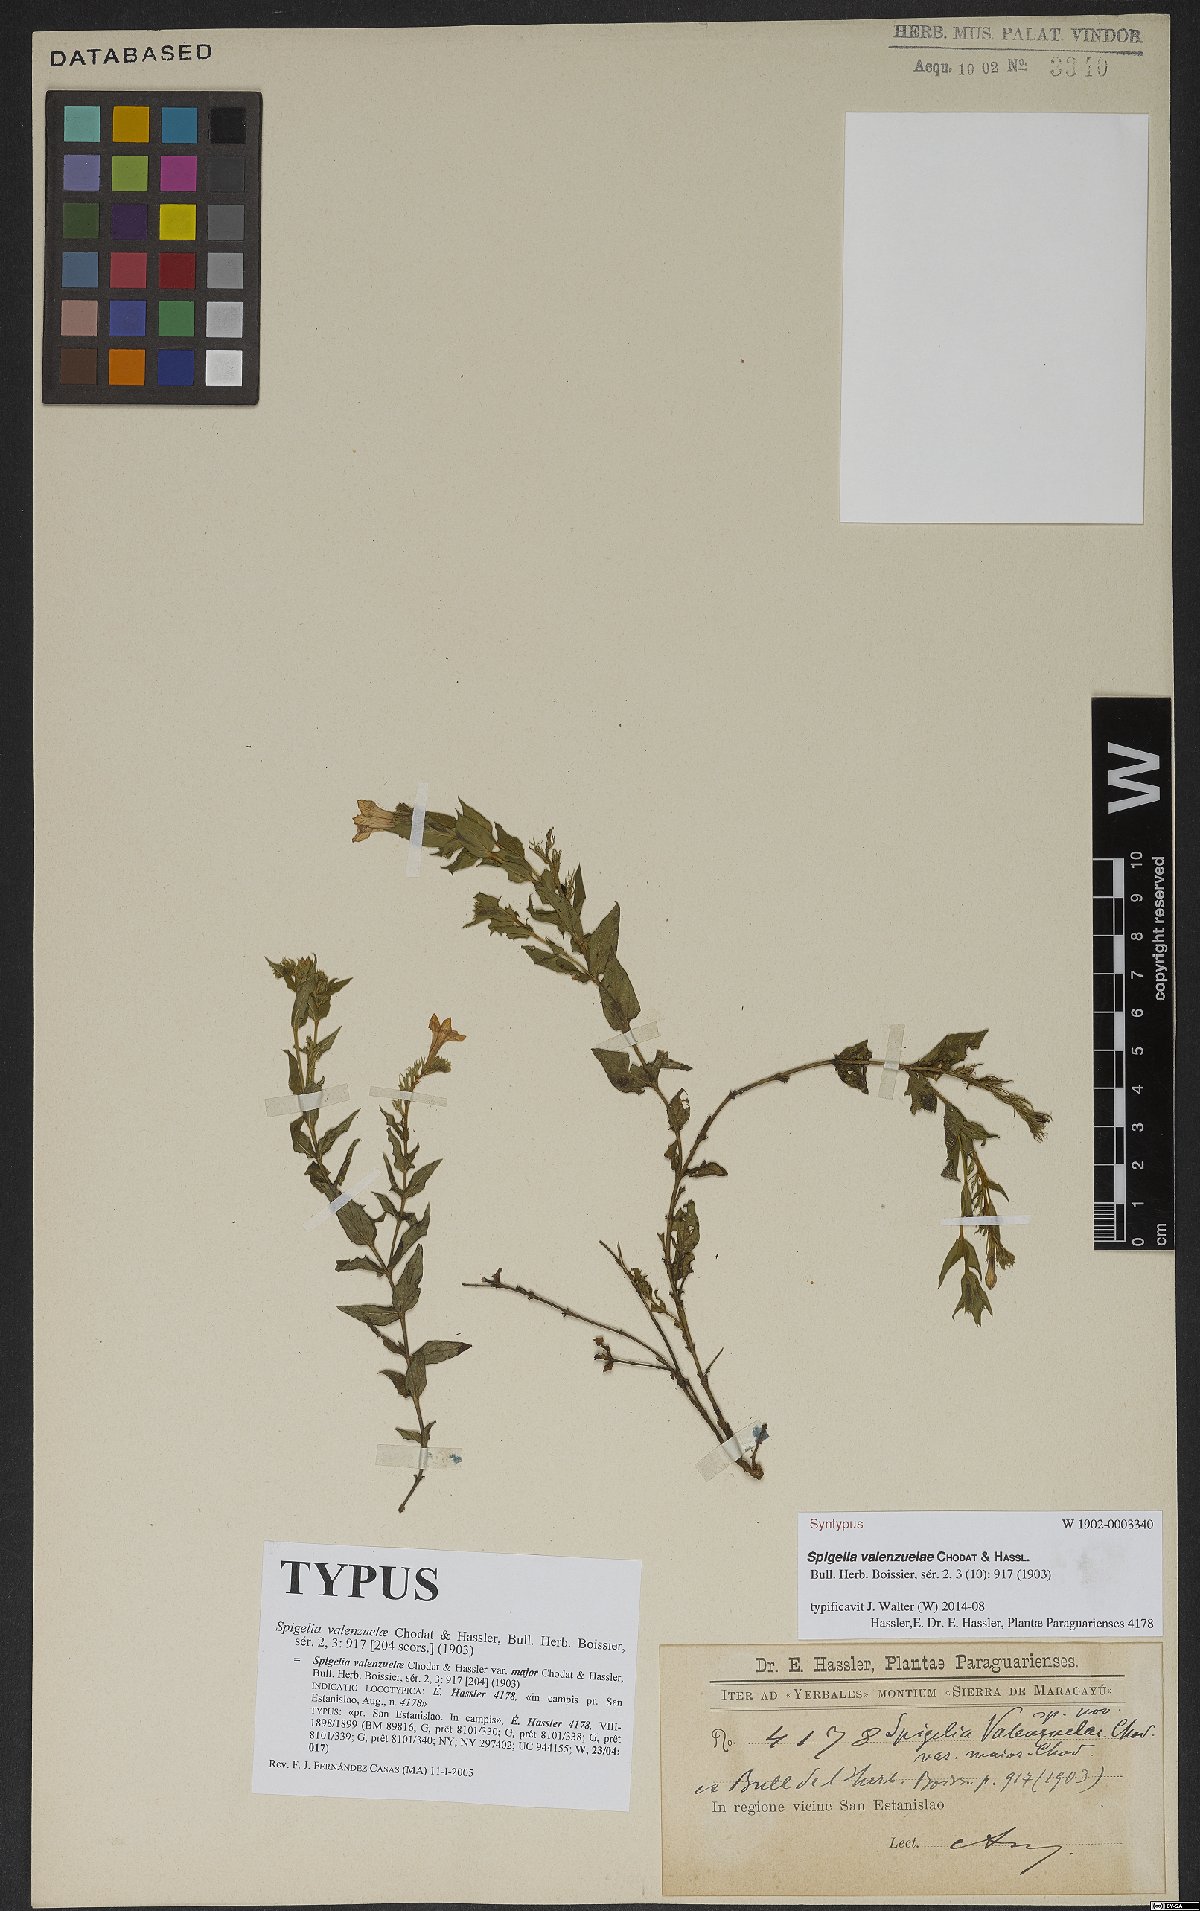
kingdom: Plantae
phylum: Tracheophyta
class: Magnoliopsida
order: Gentianales
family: Loganiaceae
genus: Spigelia
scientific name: Spigelia valenzuelae
